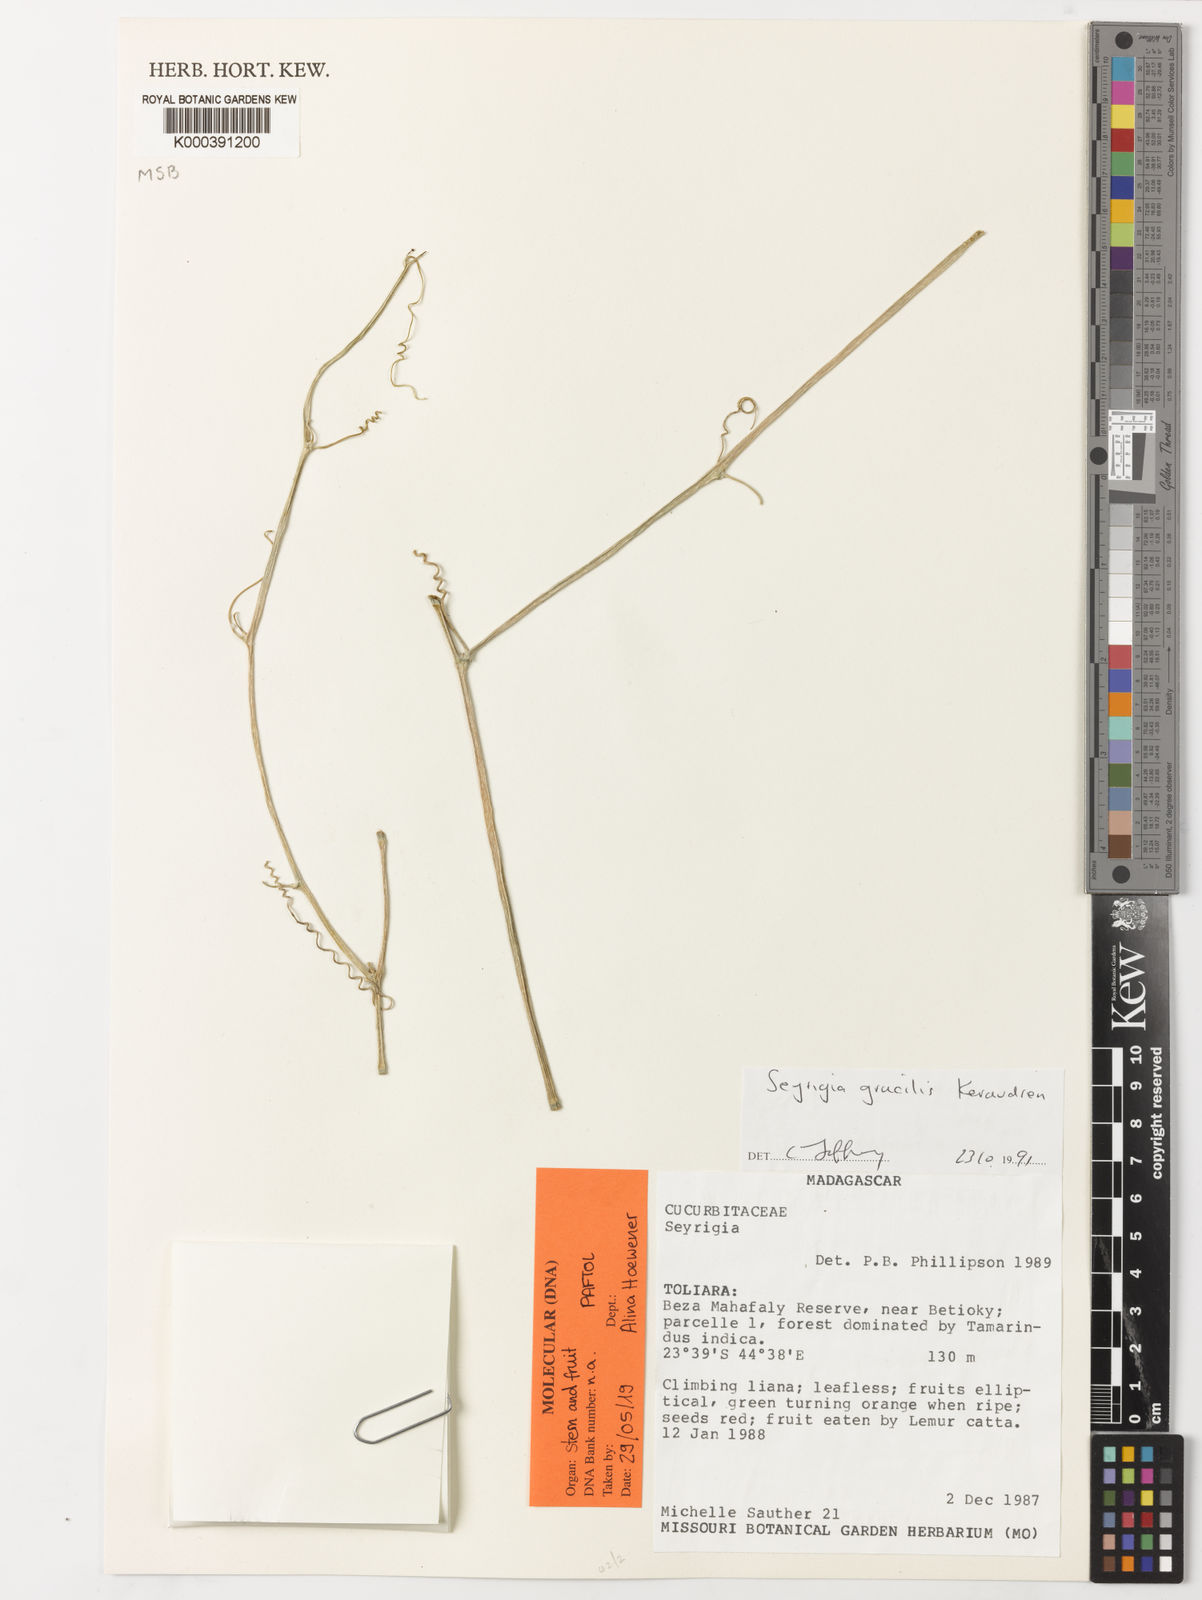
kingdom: Plantae
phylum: Tracheophyta
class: Magnoliopsida
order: Cucurbitales
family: Cucurbitaceae
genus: Seyrigia
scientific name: Seyrigia gracilis
